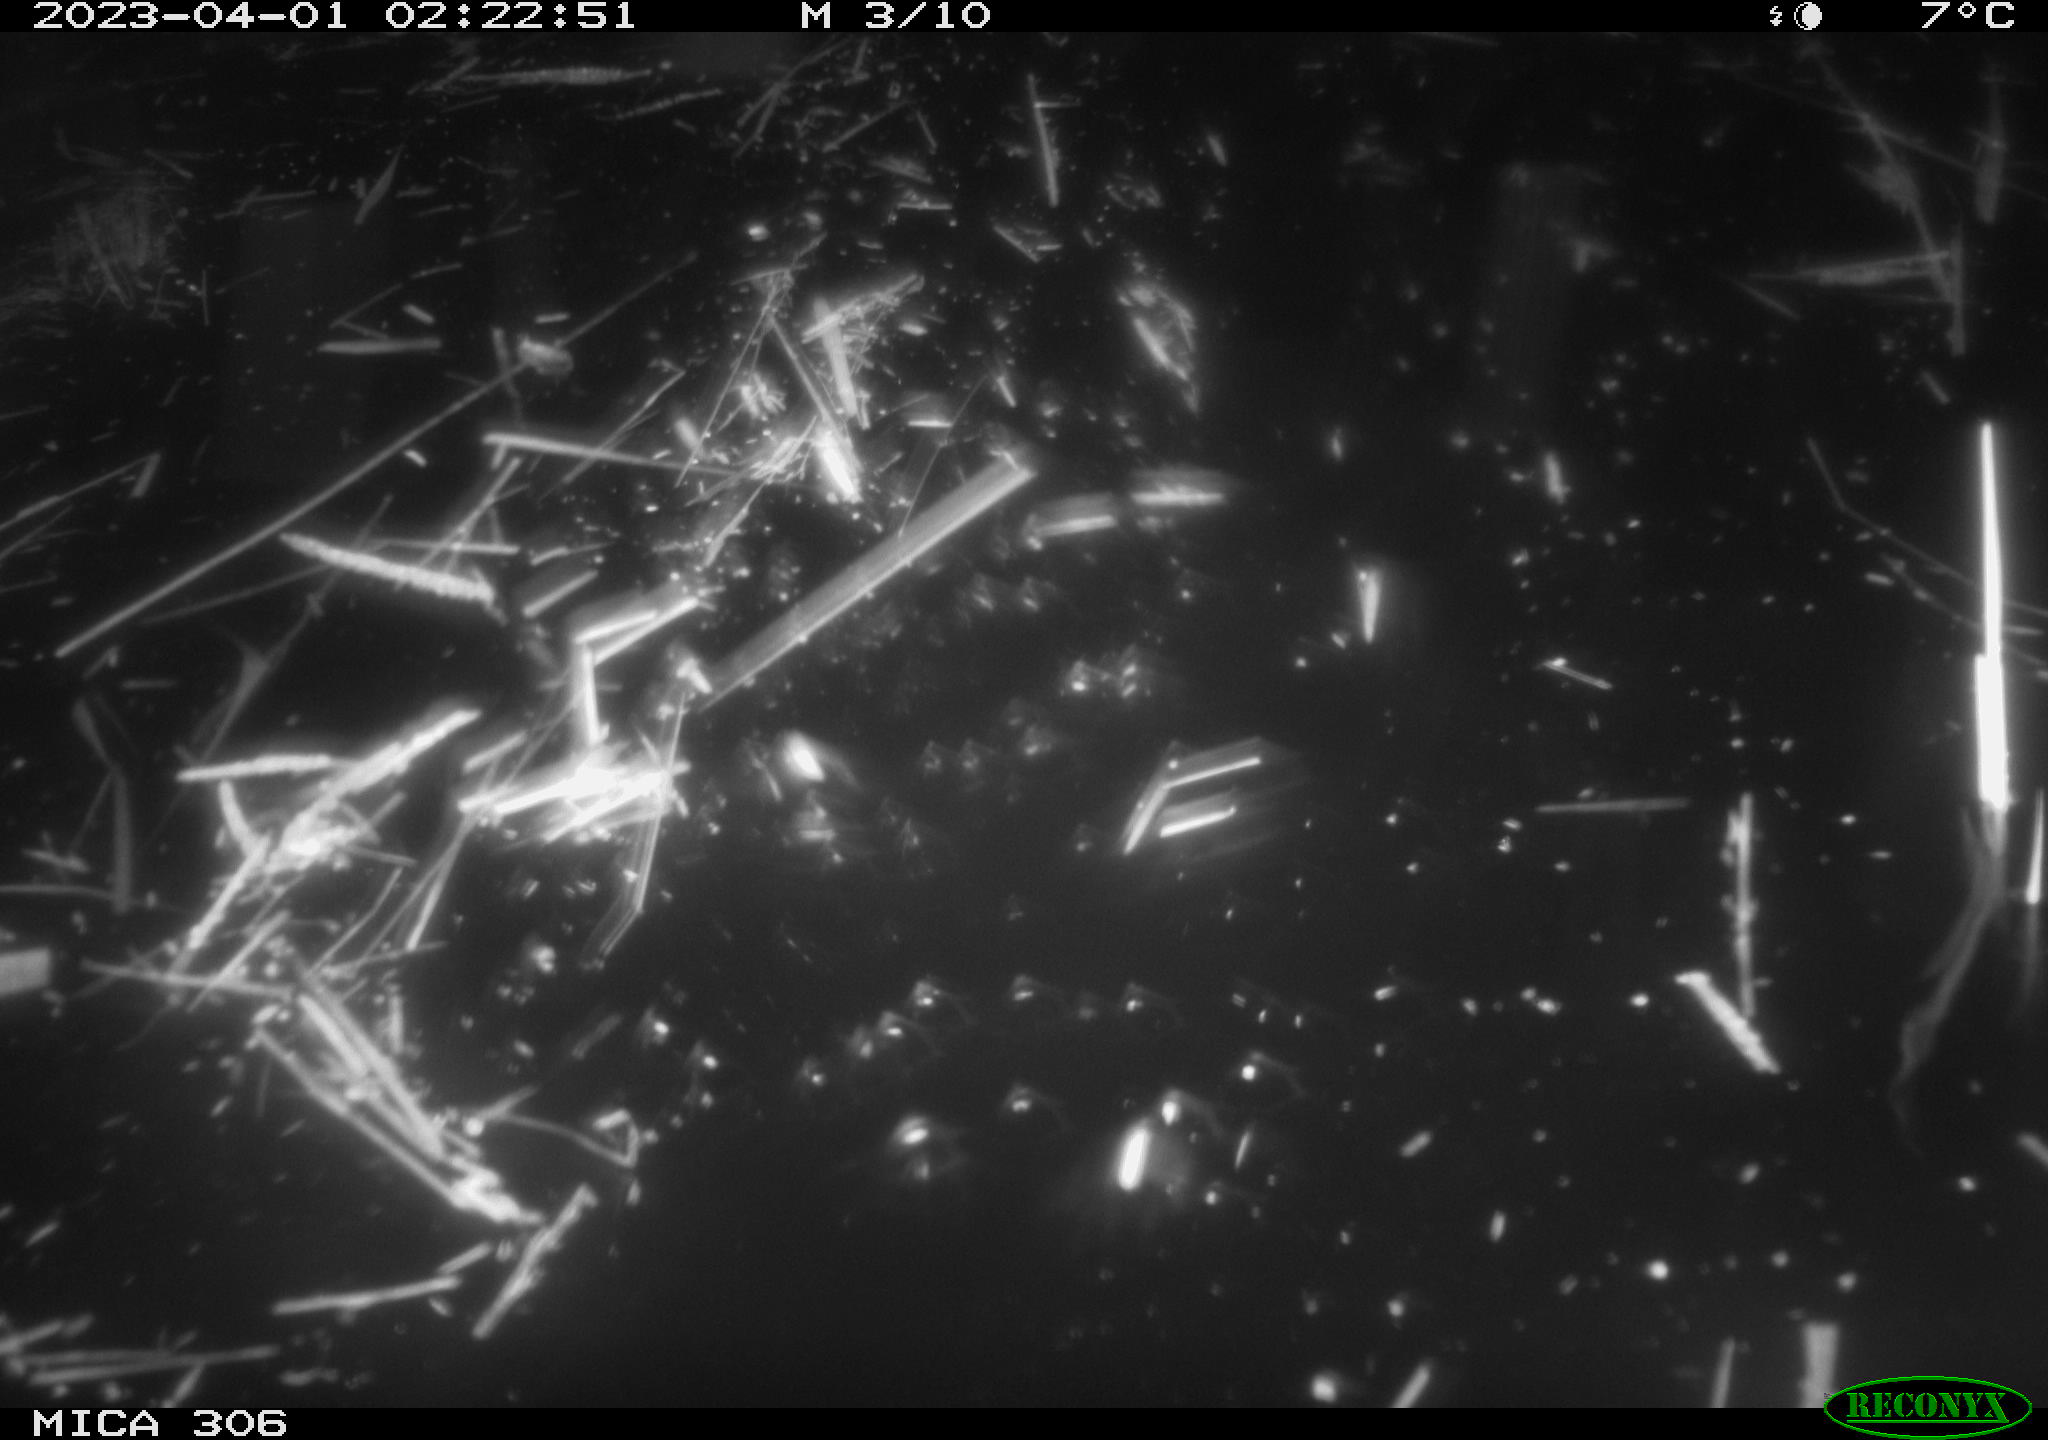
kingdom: Animalia
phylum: Chordata
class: Mammalia
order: Rodentia
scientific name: Rodentia
